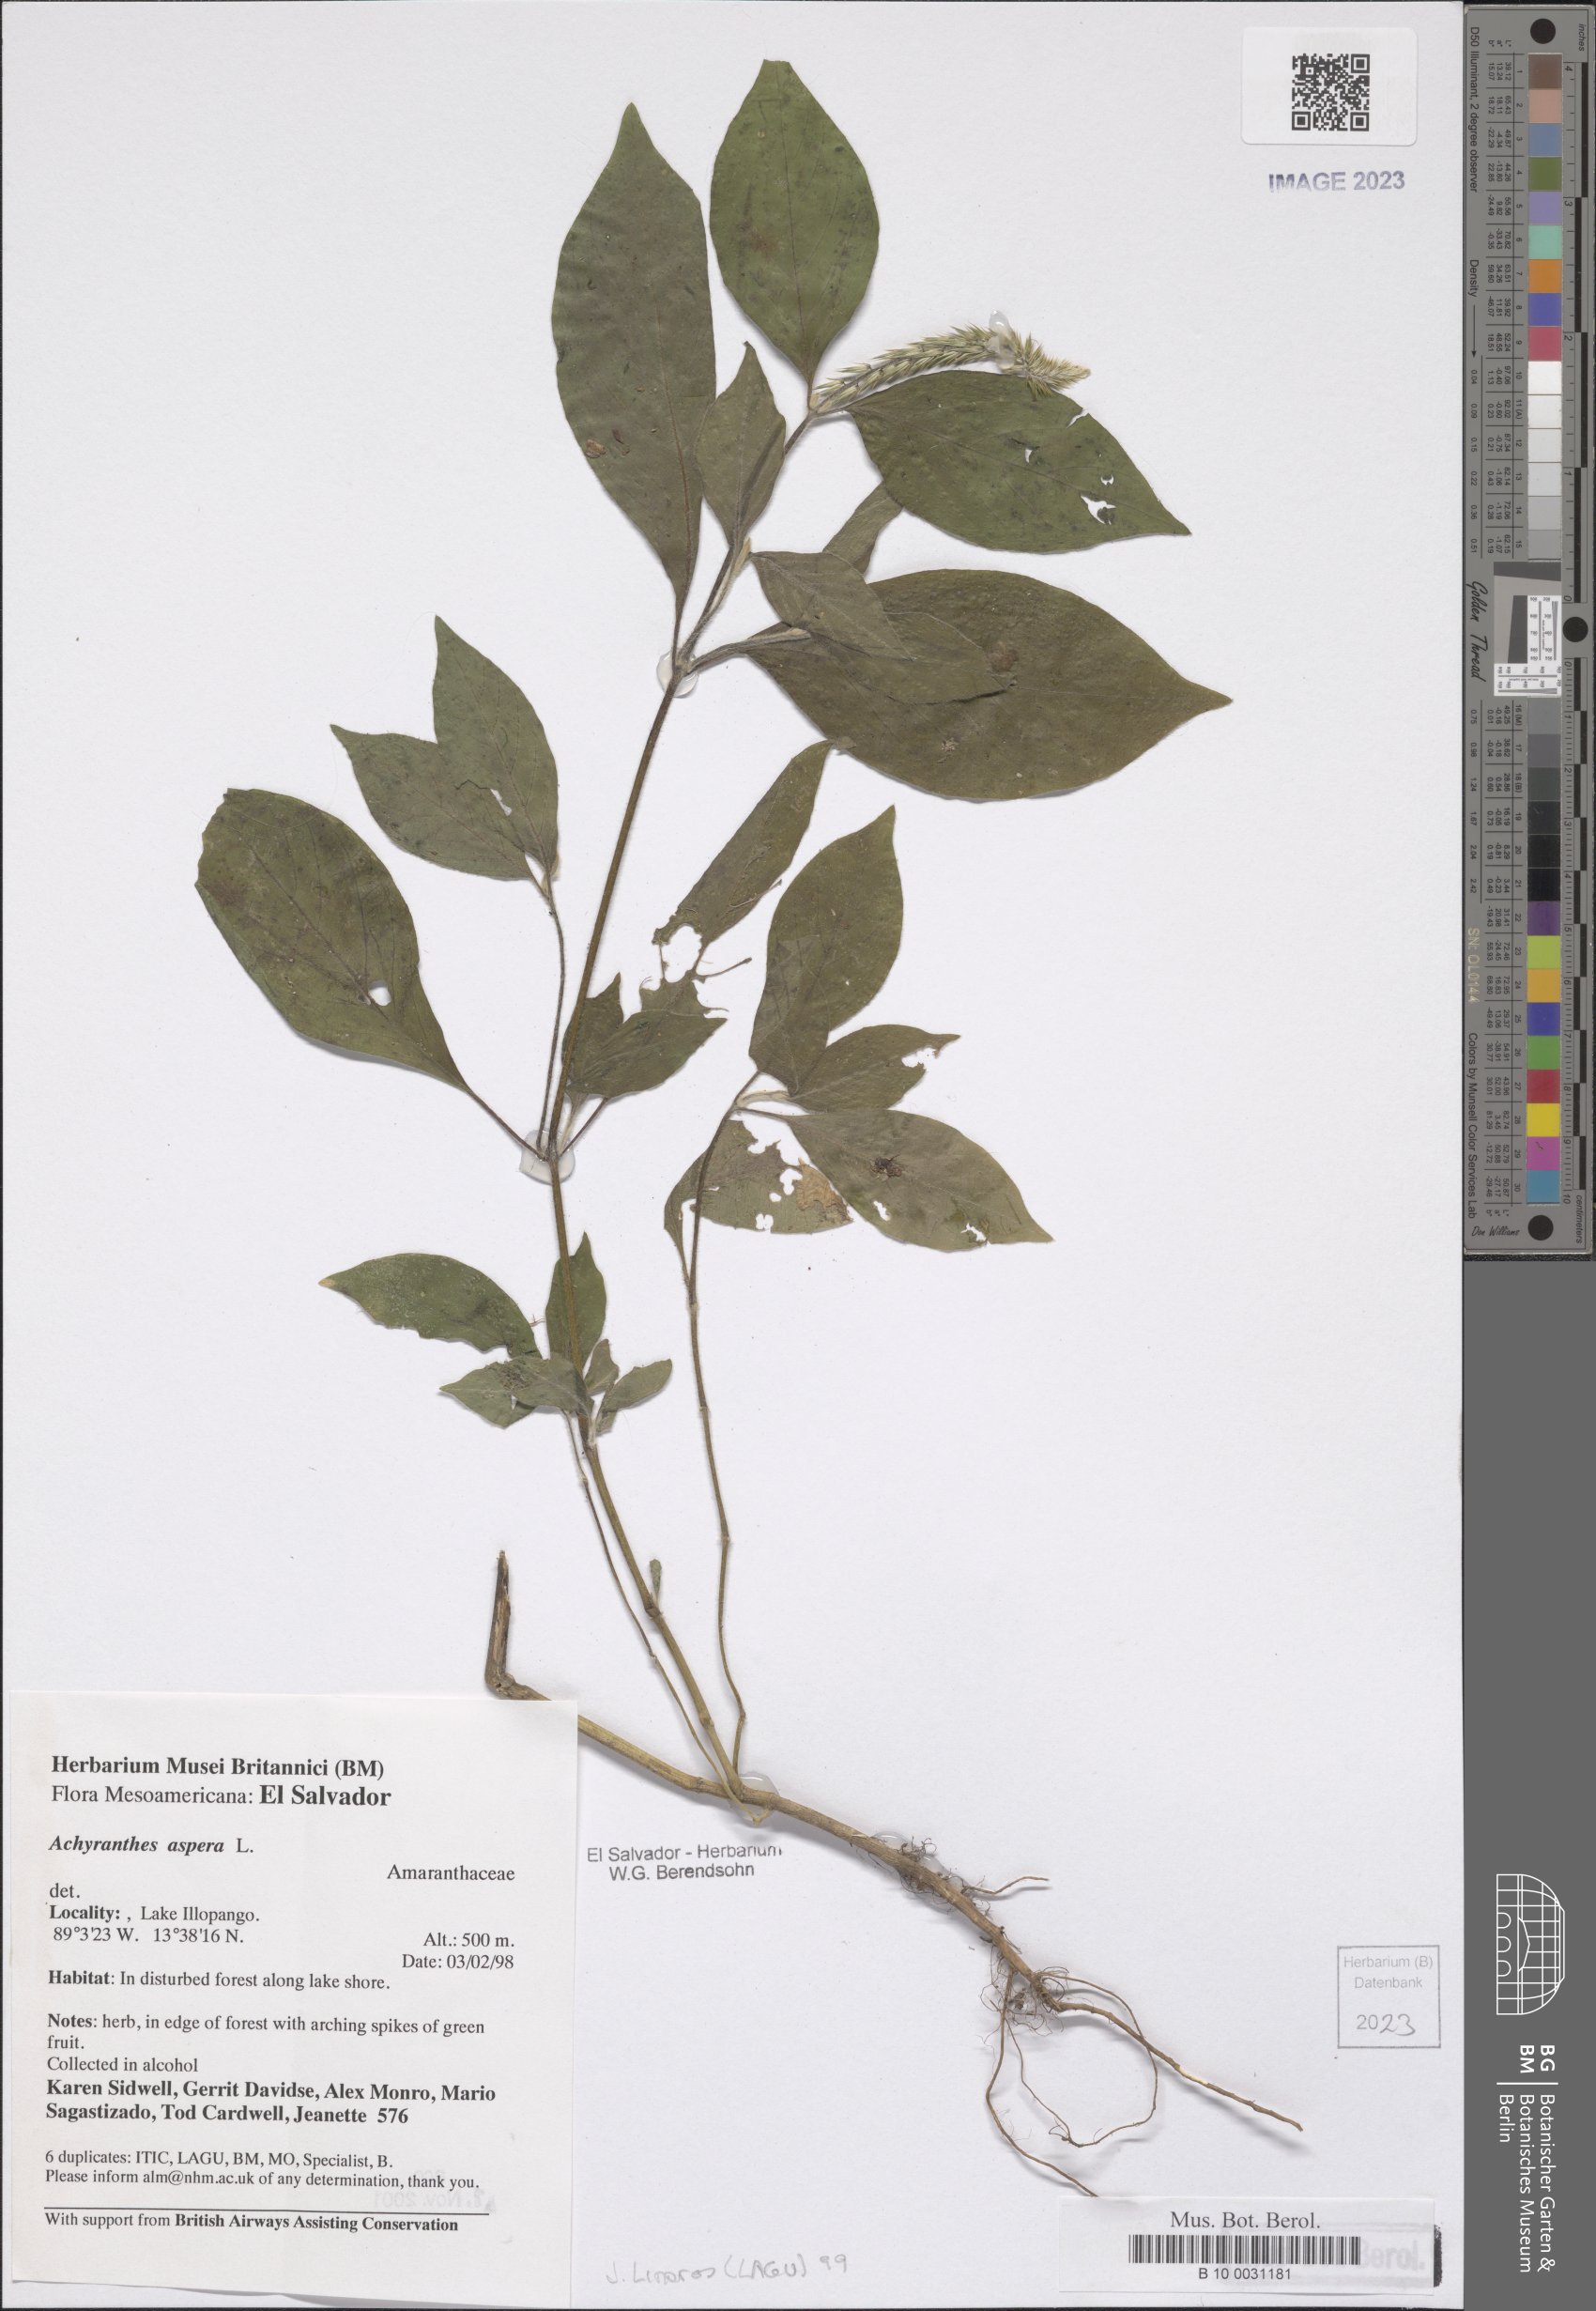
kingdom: Plantae
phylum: Tracheophyta
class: Magnoliopsida
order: Caryophyllales
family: Amaranthaceae
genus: Achyranthes
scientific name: Achyranthes aspera
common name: Devil's horsewhip
